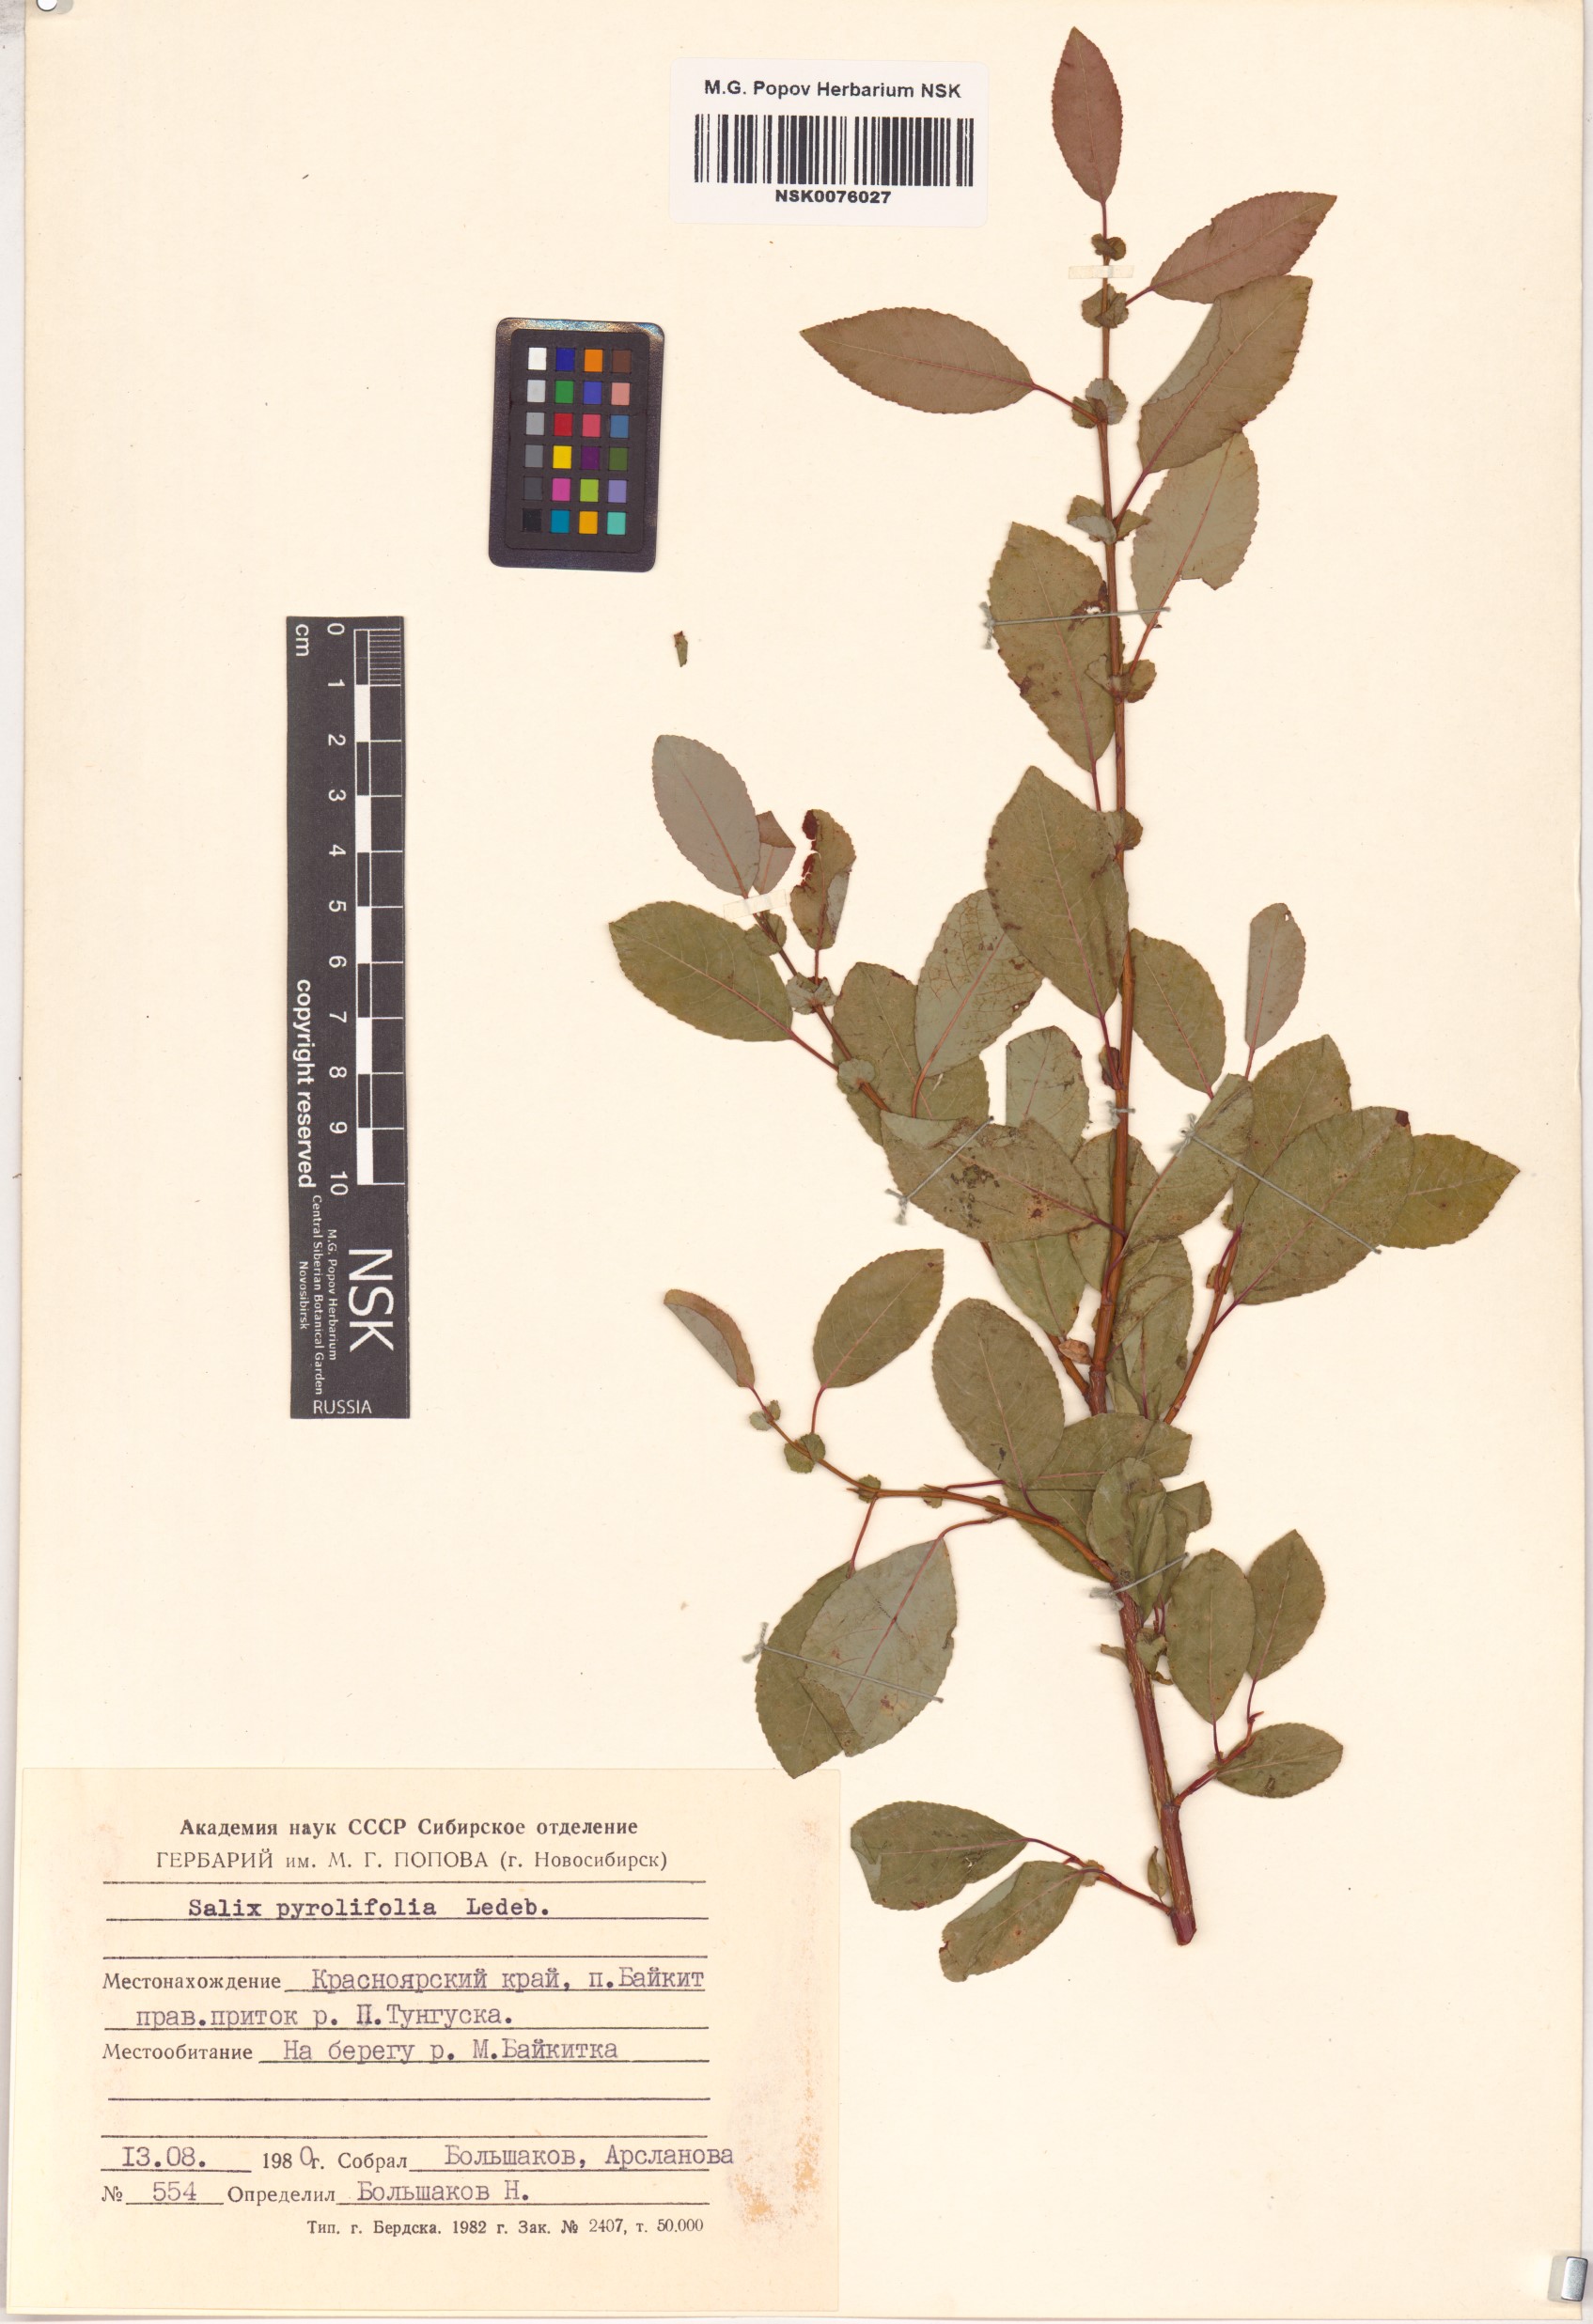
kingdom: Plantae
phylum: Tracheophyta
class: Magnoliopsida
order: Malpighiales
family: Salicaceae
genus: Salix
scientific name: Salix pyrolifolia
